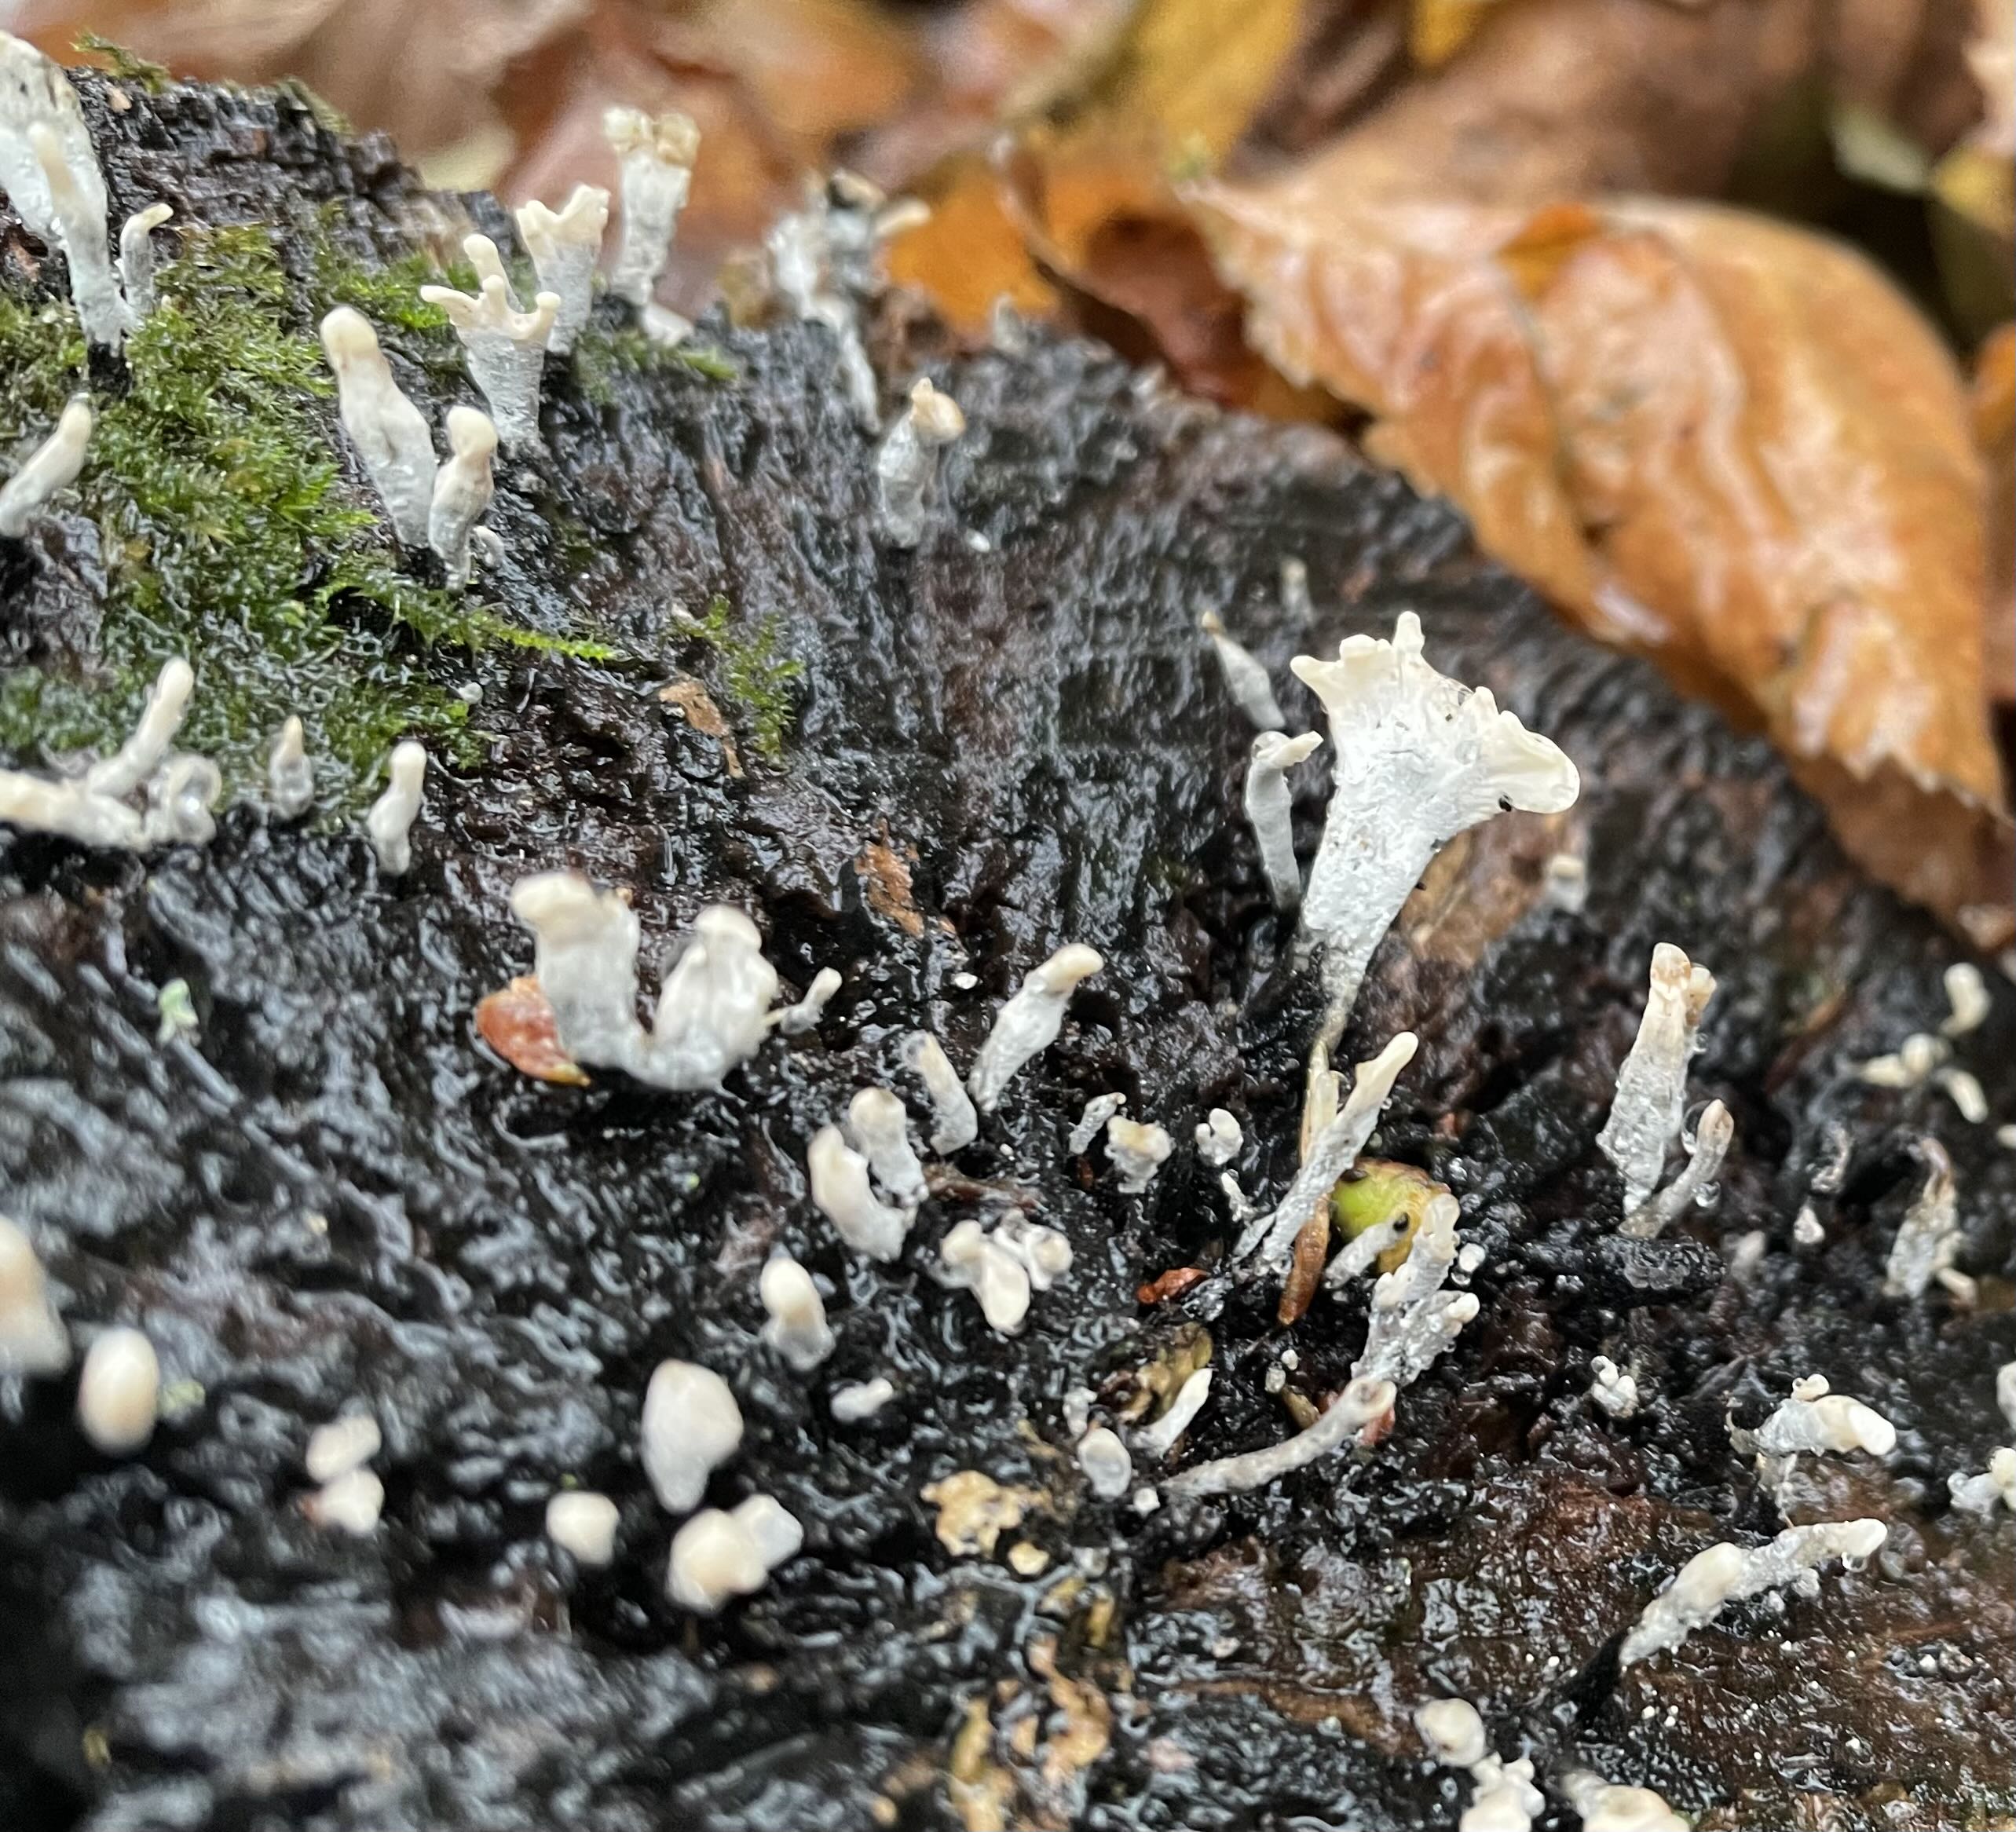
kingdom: Fungi
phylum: Ascomycota
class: Sordariomycetes
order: Xylariales
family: Xylariaceae
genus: Xylaria
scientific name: Xylaria hypoxylon
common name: grenet stødsvamp
